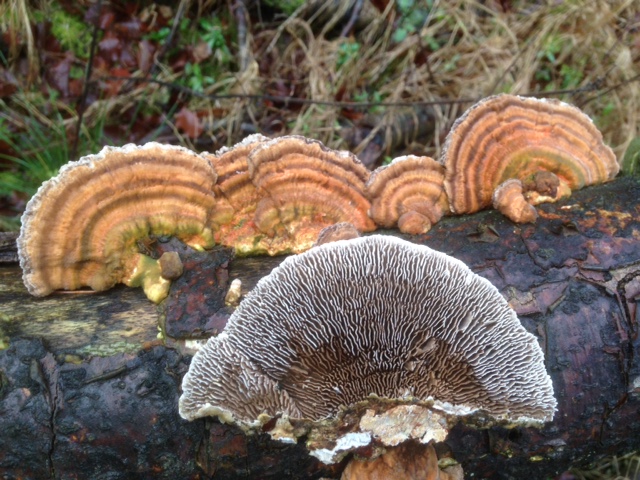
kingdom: Fungi
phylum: Basidiomycota
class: Agaricomycetes
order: Polyporales
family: Polyporaceae
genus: Lenzites
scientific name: Lenzites betulinus
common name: birke-læderporesvamp
